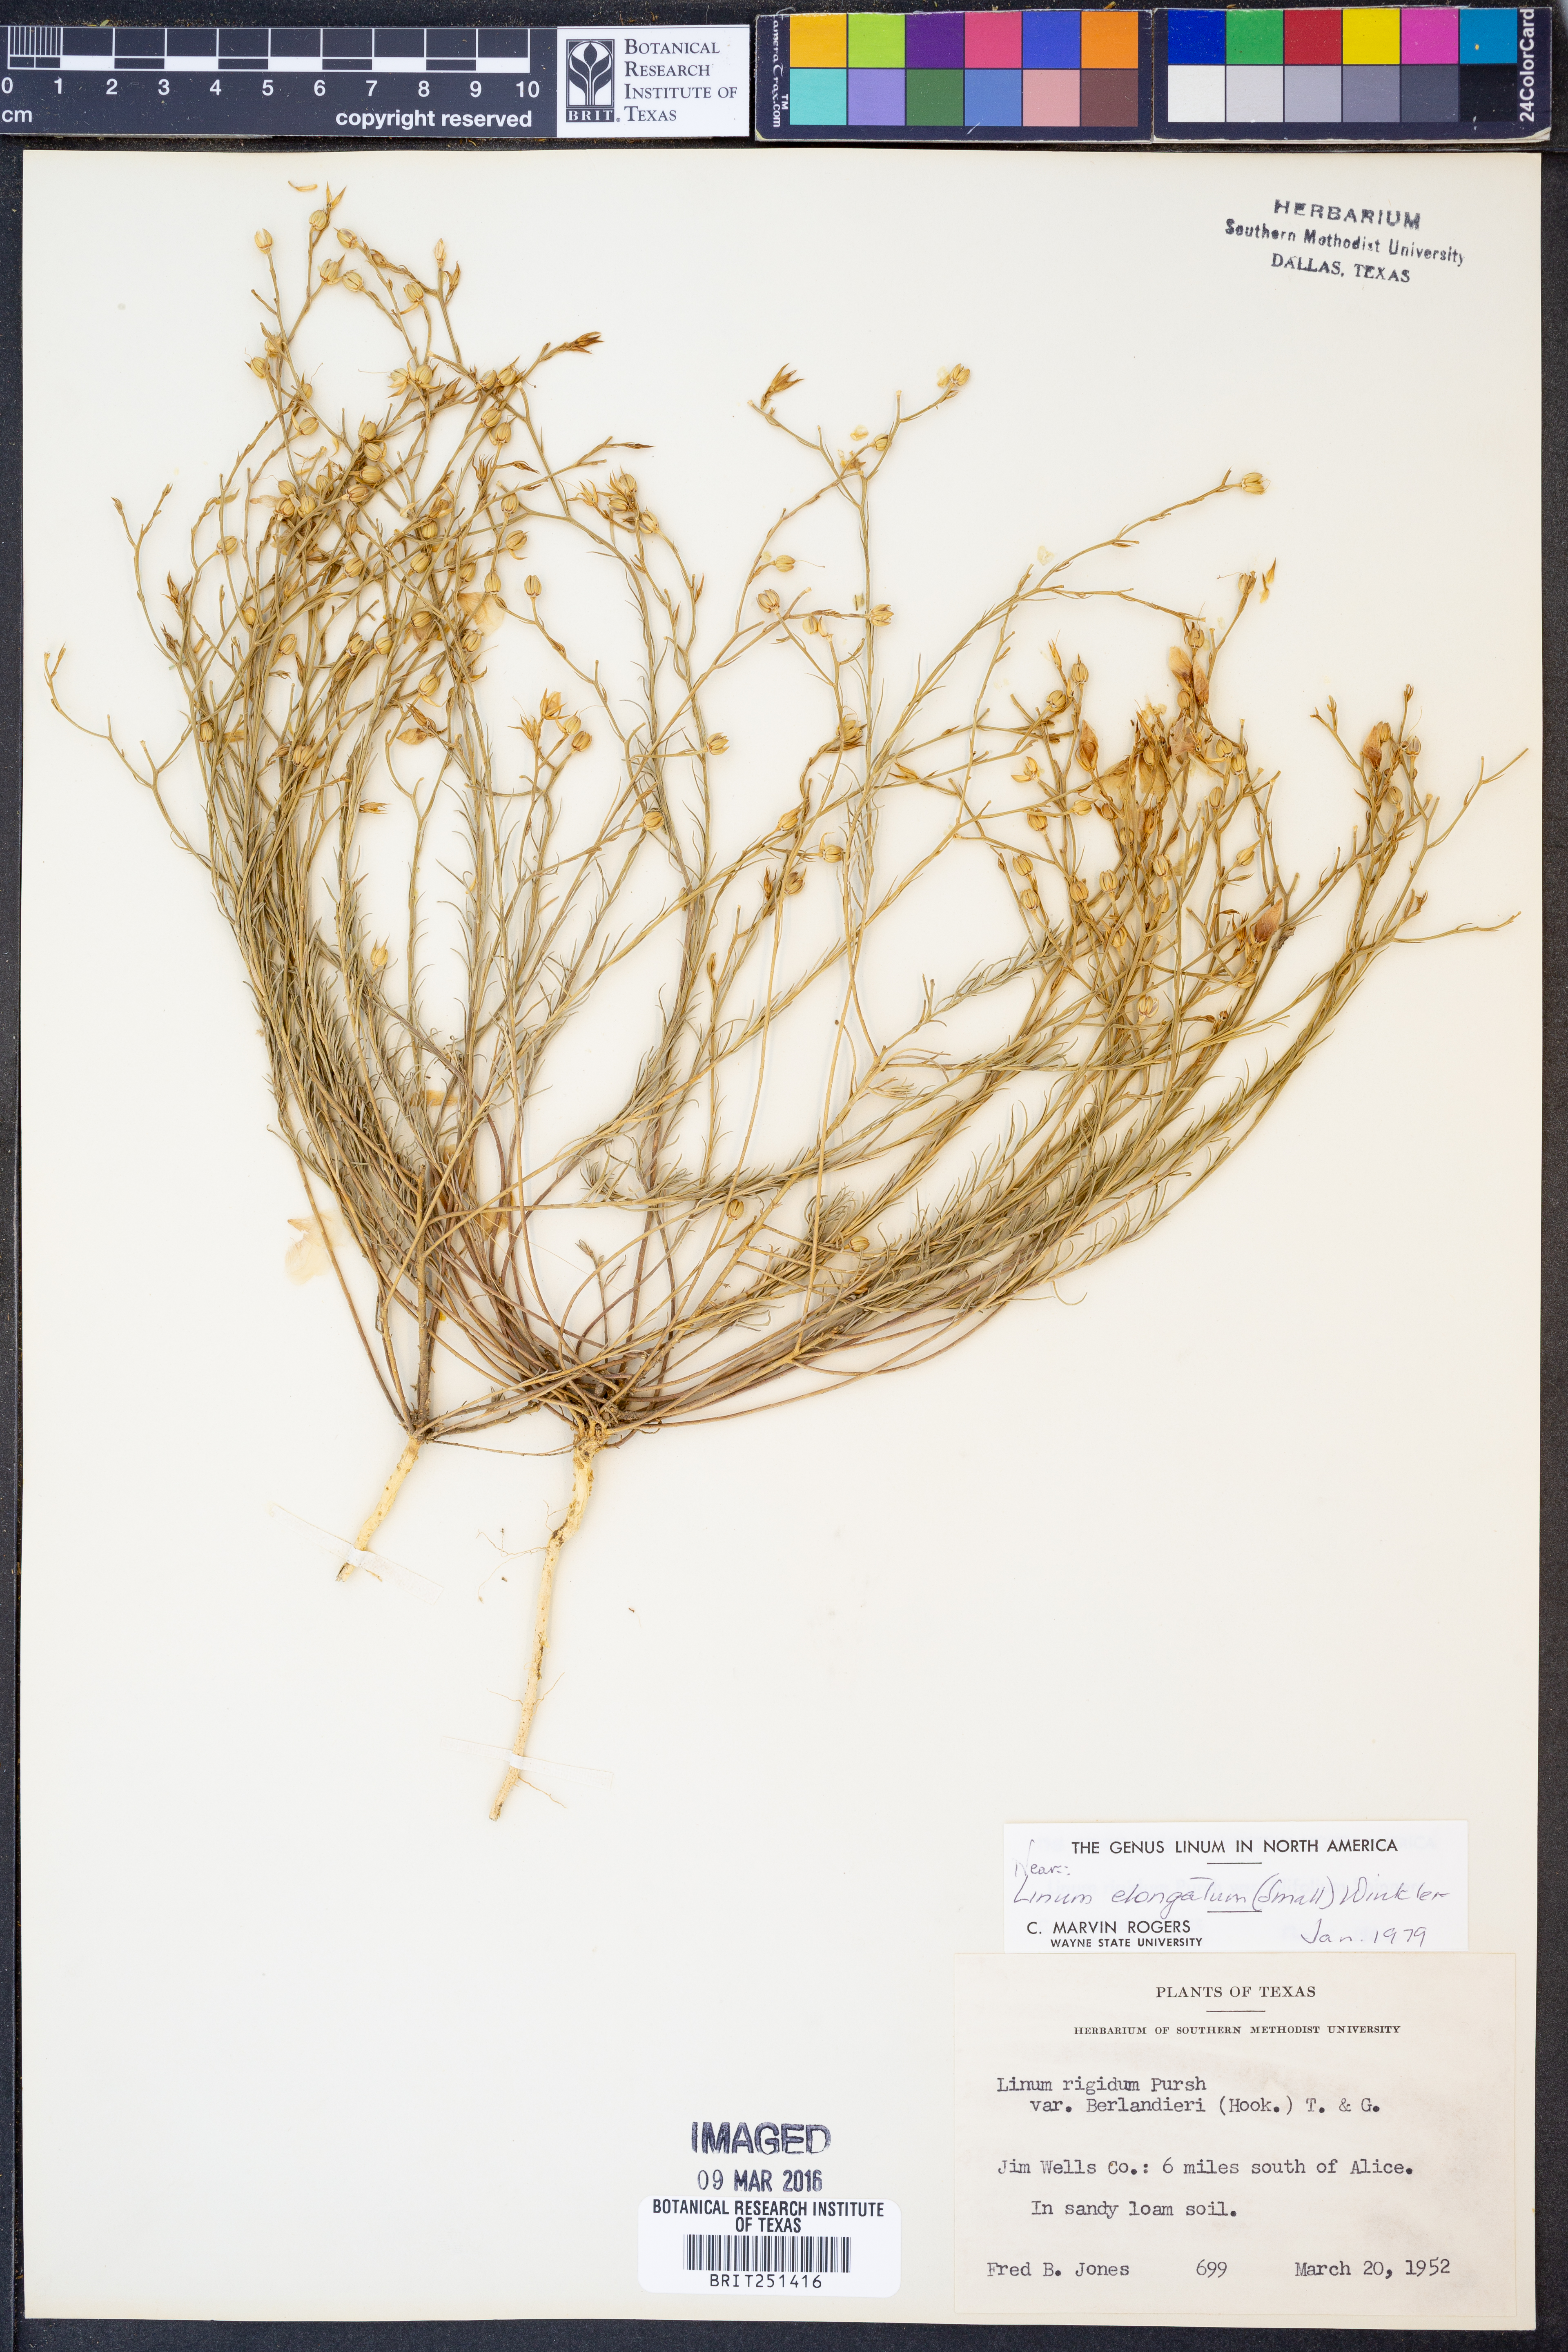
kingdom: Plantae
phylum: Tracheophyta
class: Magnoliopsida
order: Malpighiales
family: Linaceae
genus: Linum
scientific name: Linum elongatum
